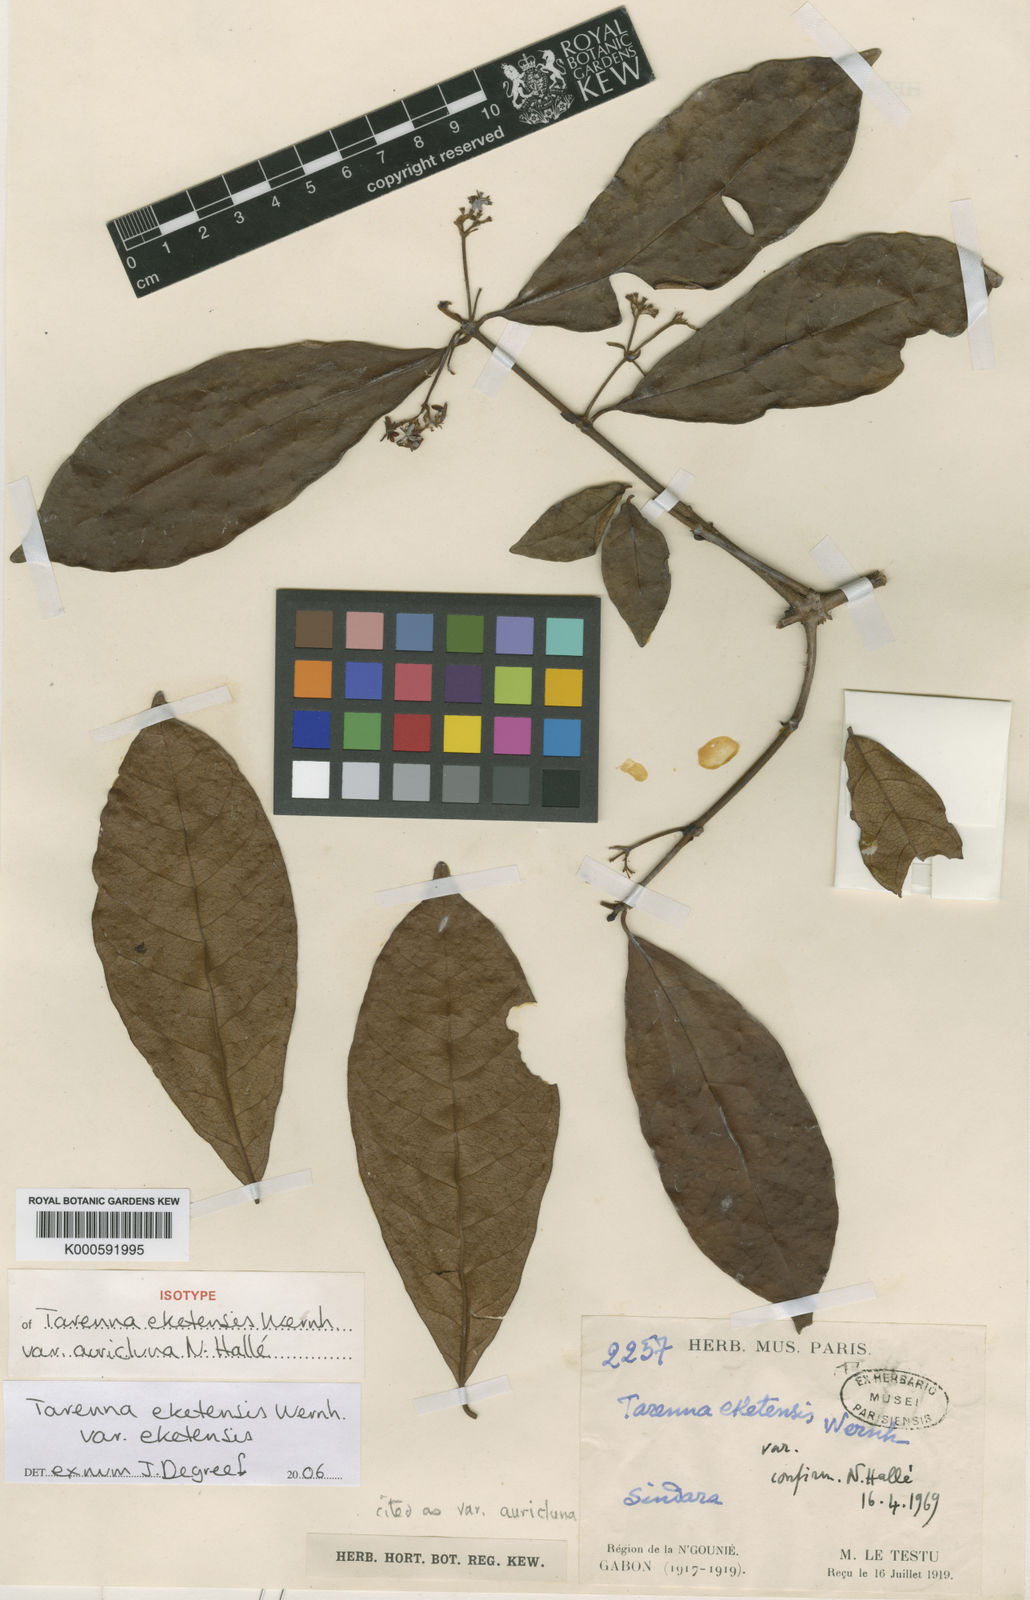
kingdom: Plantae
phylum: Tracheophyta
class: Magnoliopsida
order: Gentianales
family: Rubiaceae
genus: Tarenna
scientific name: Tarenna eketensis
